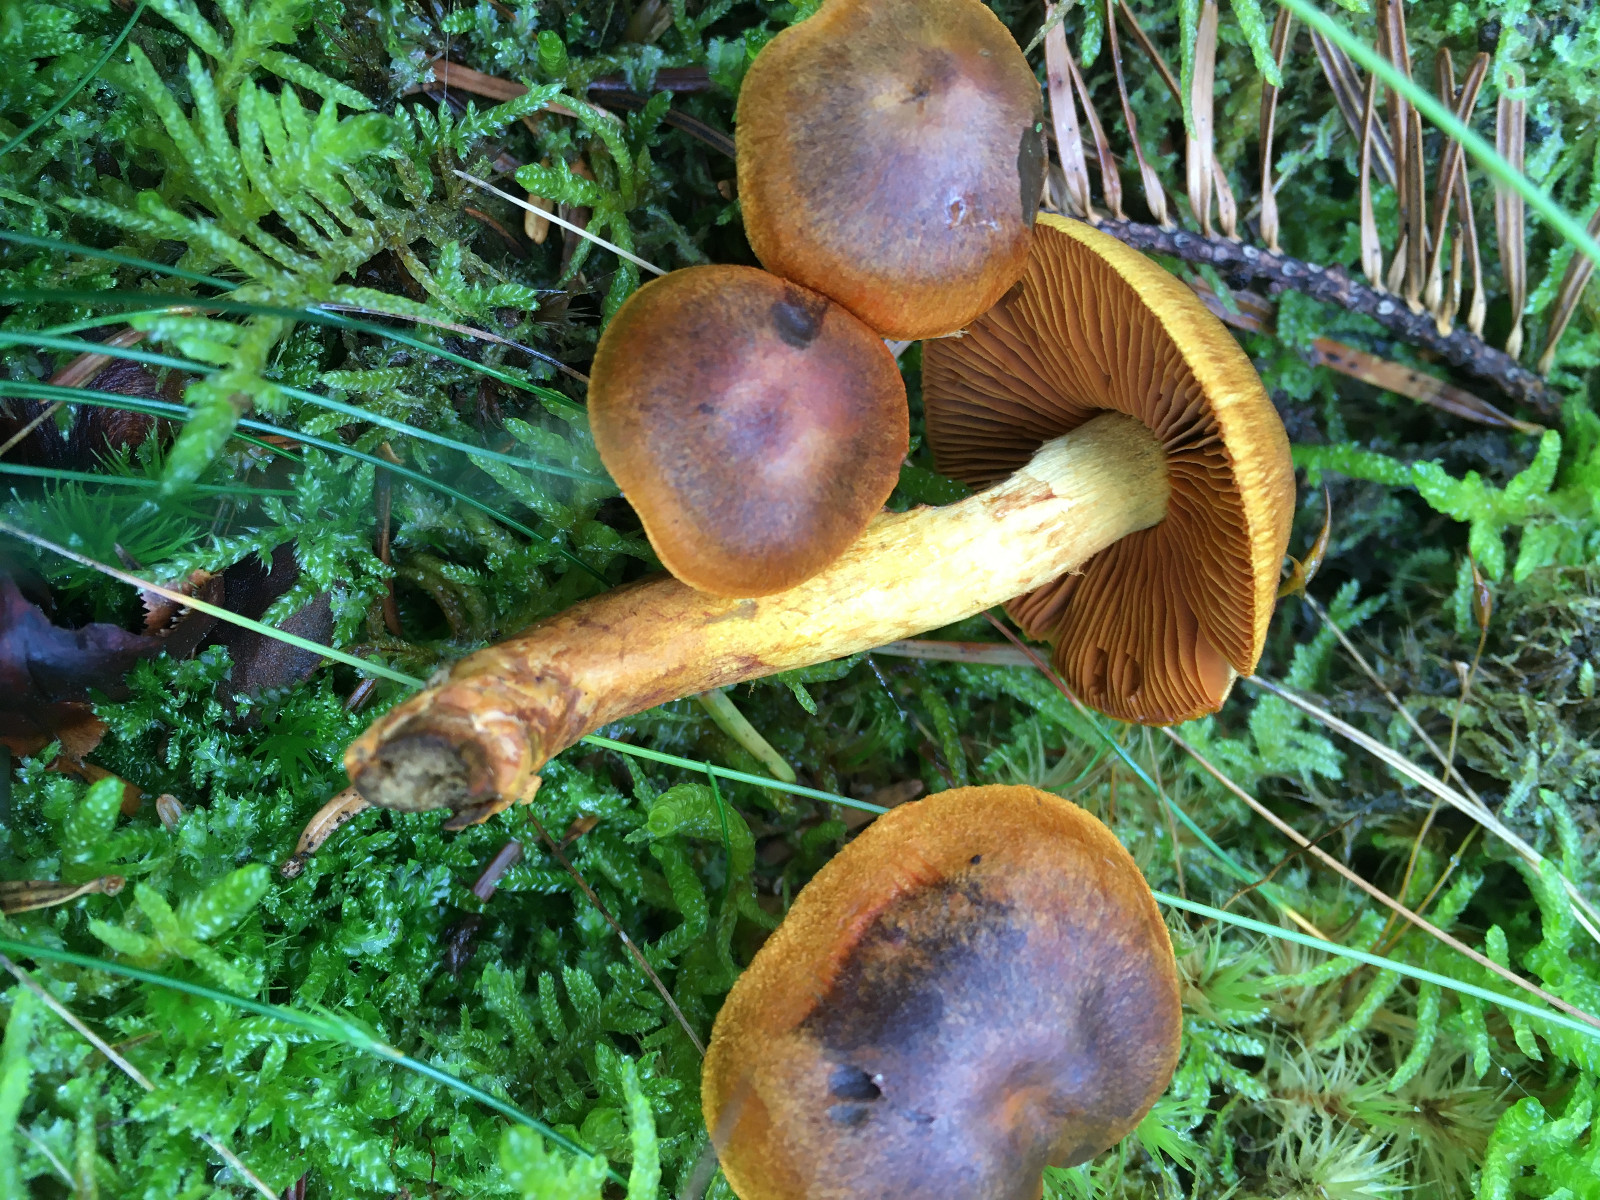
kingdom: Fungi
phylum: Basidiomycota
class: Agaricomycetes
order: Agaricales
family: Cortinariaceae
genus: Cortinarius
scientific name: Cortinarius malicorius
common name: grønkødet slørhat
